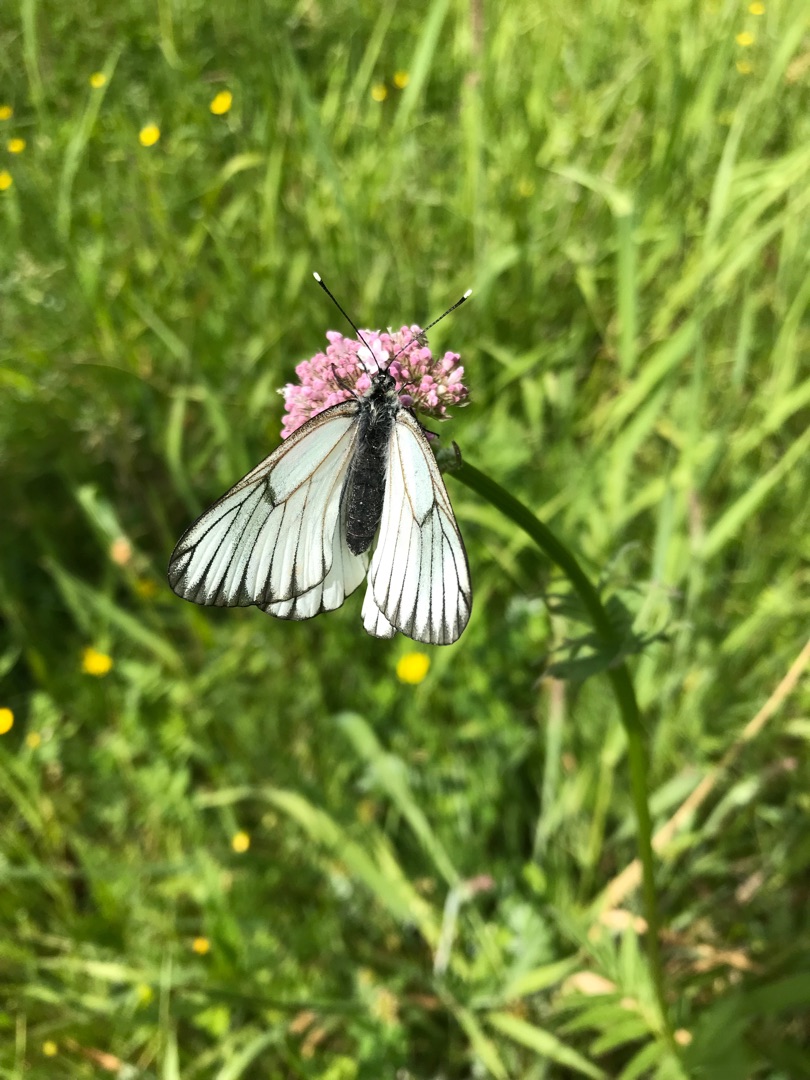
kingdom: Animalia
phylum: Arthropoda
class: Insecta
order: Lepidoptera
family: Pieridae
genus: Aporia
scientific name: Aporia crataegi
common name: Sortåret hvidvinge
